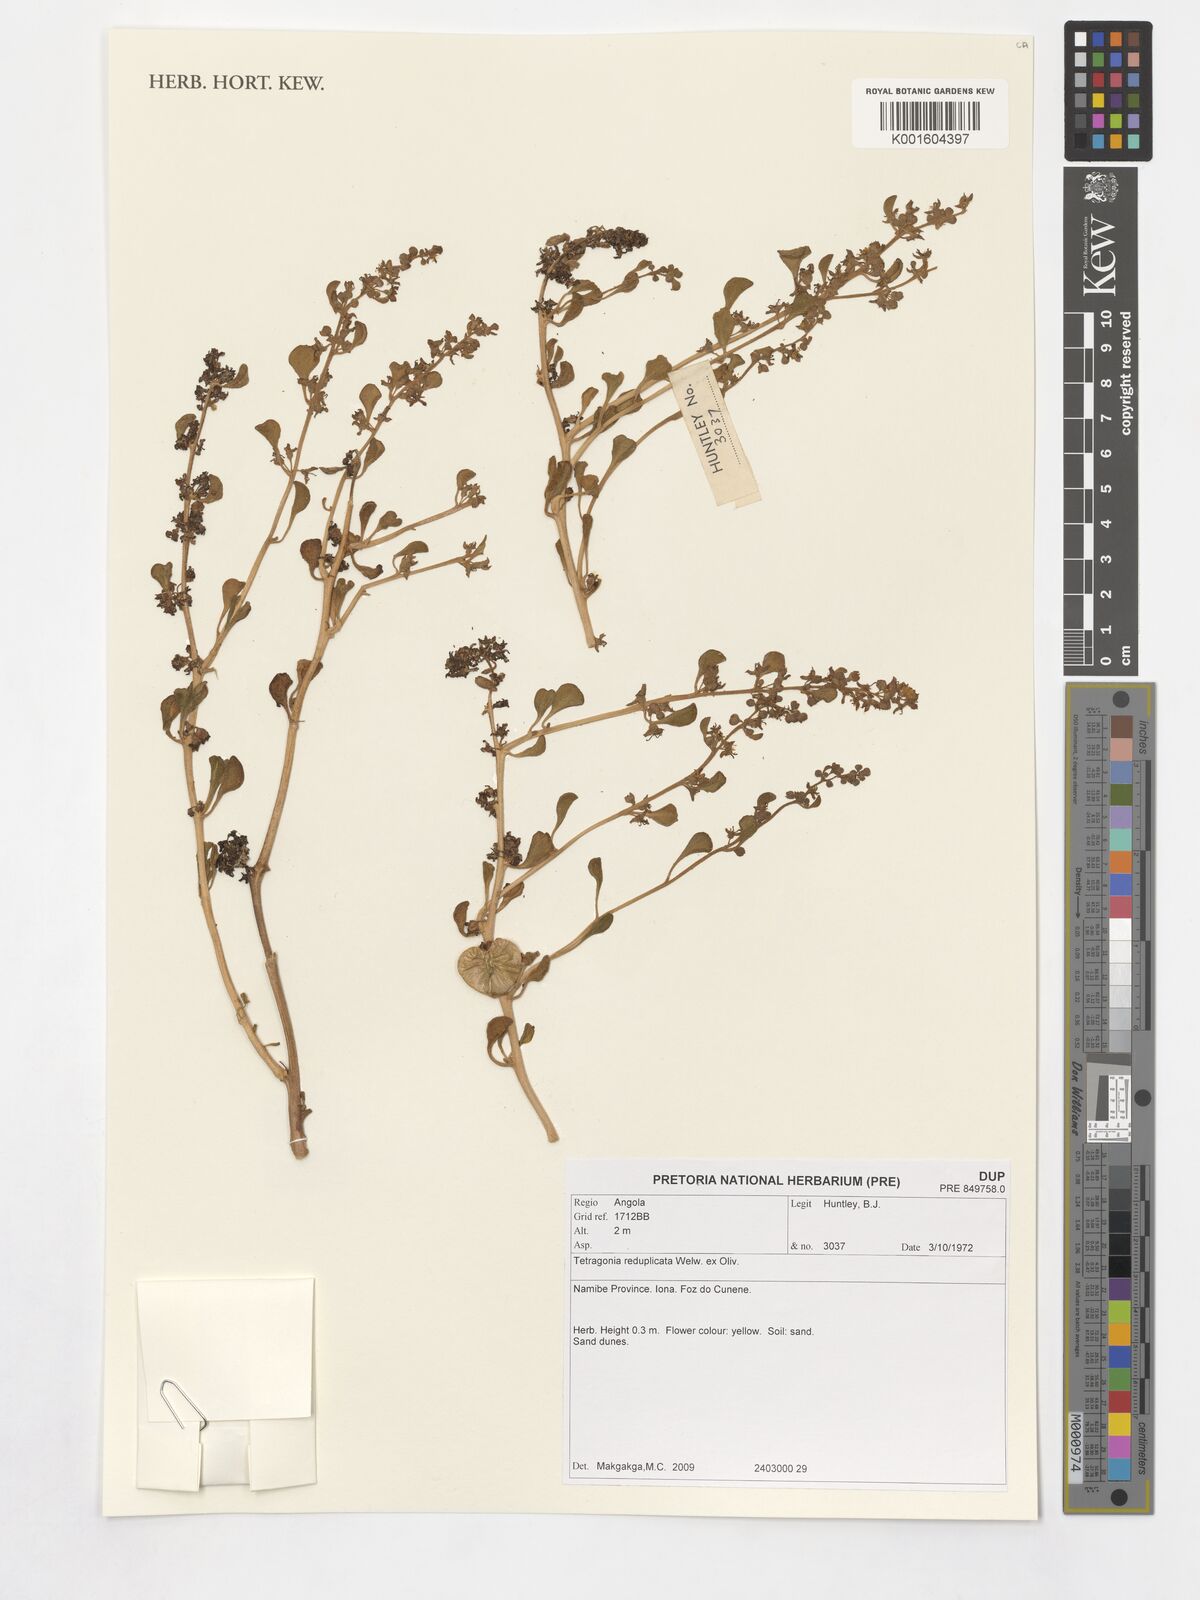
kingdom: Plantae
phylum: Tracheophyta
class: Magnoliopsida
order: Caryophyllales
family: Aizoaceae
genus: Tetragonia
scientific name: Tetragonia reduplicata
